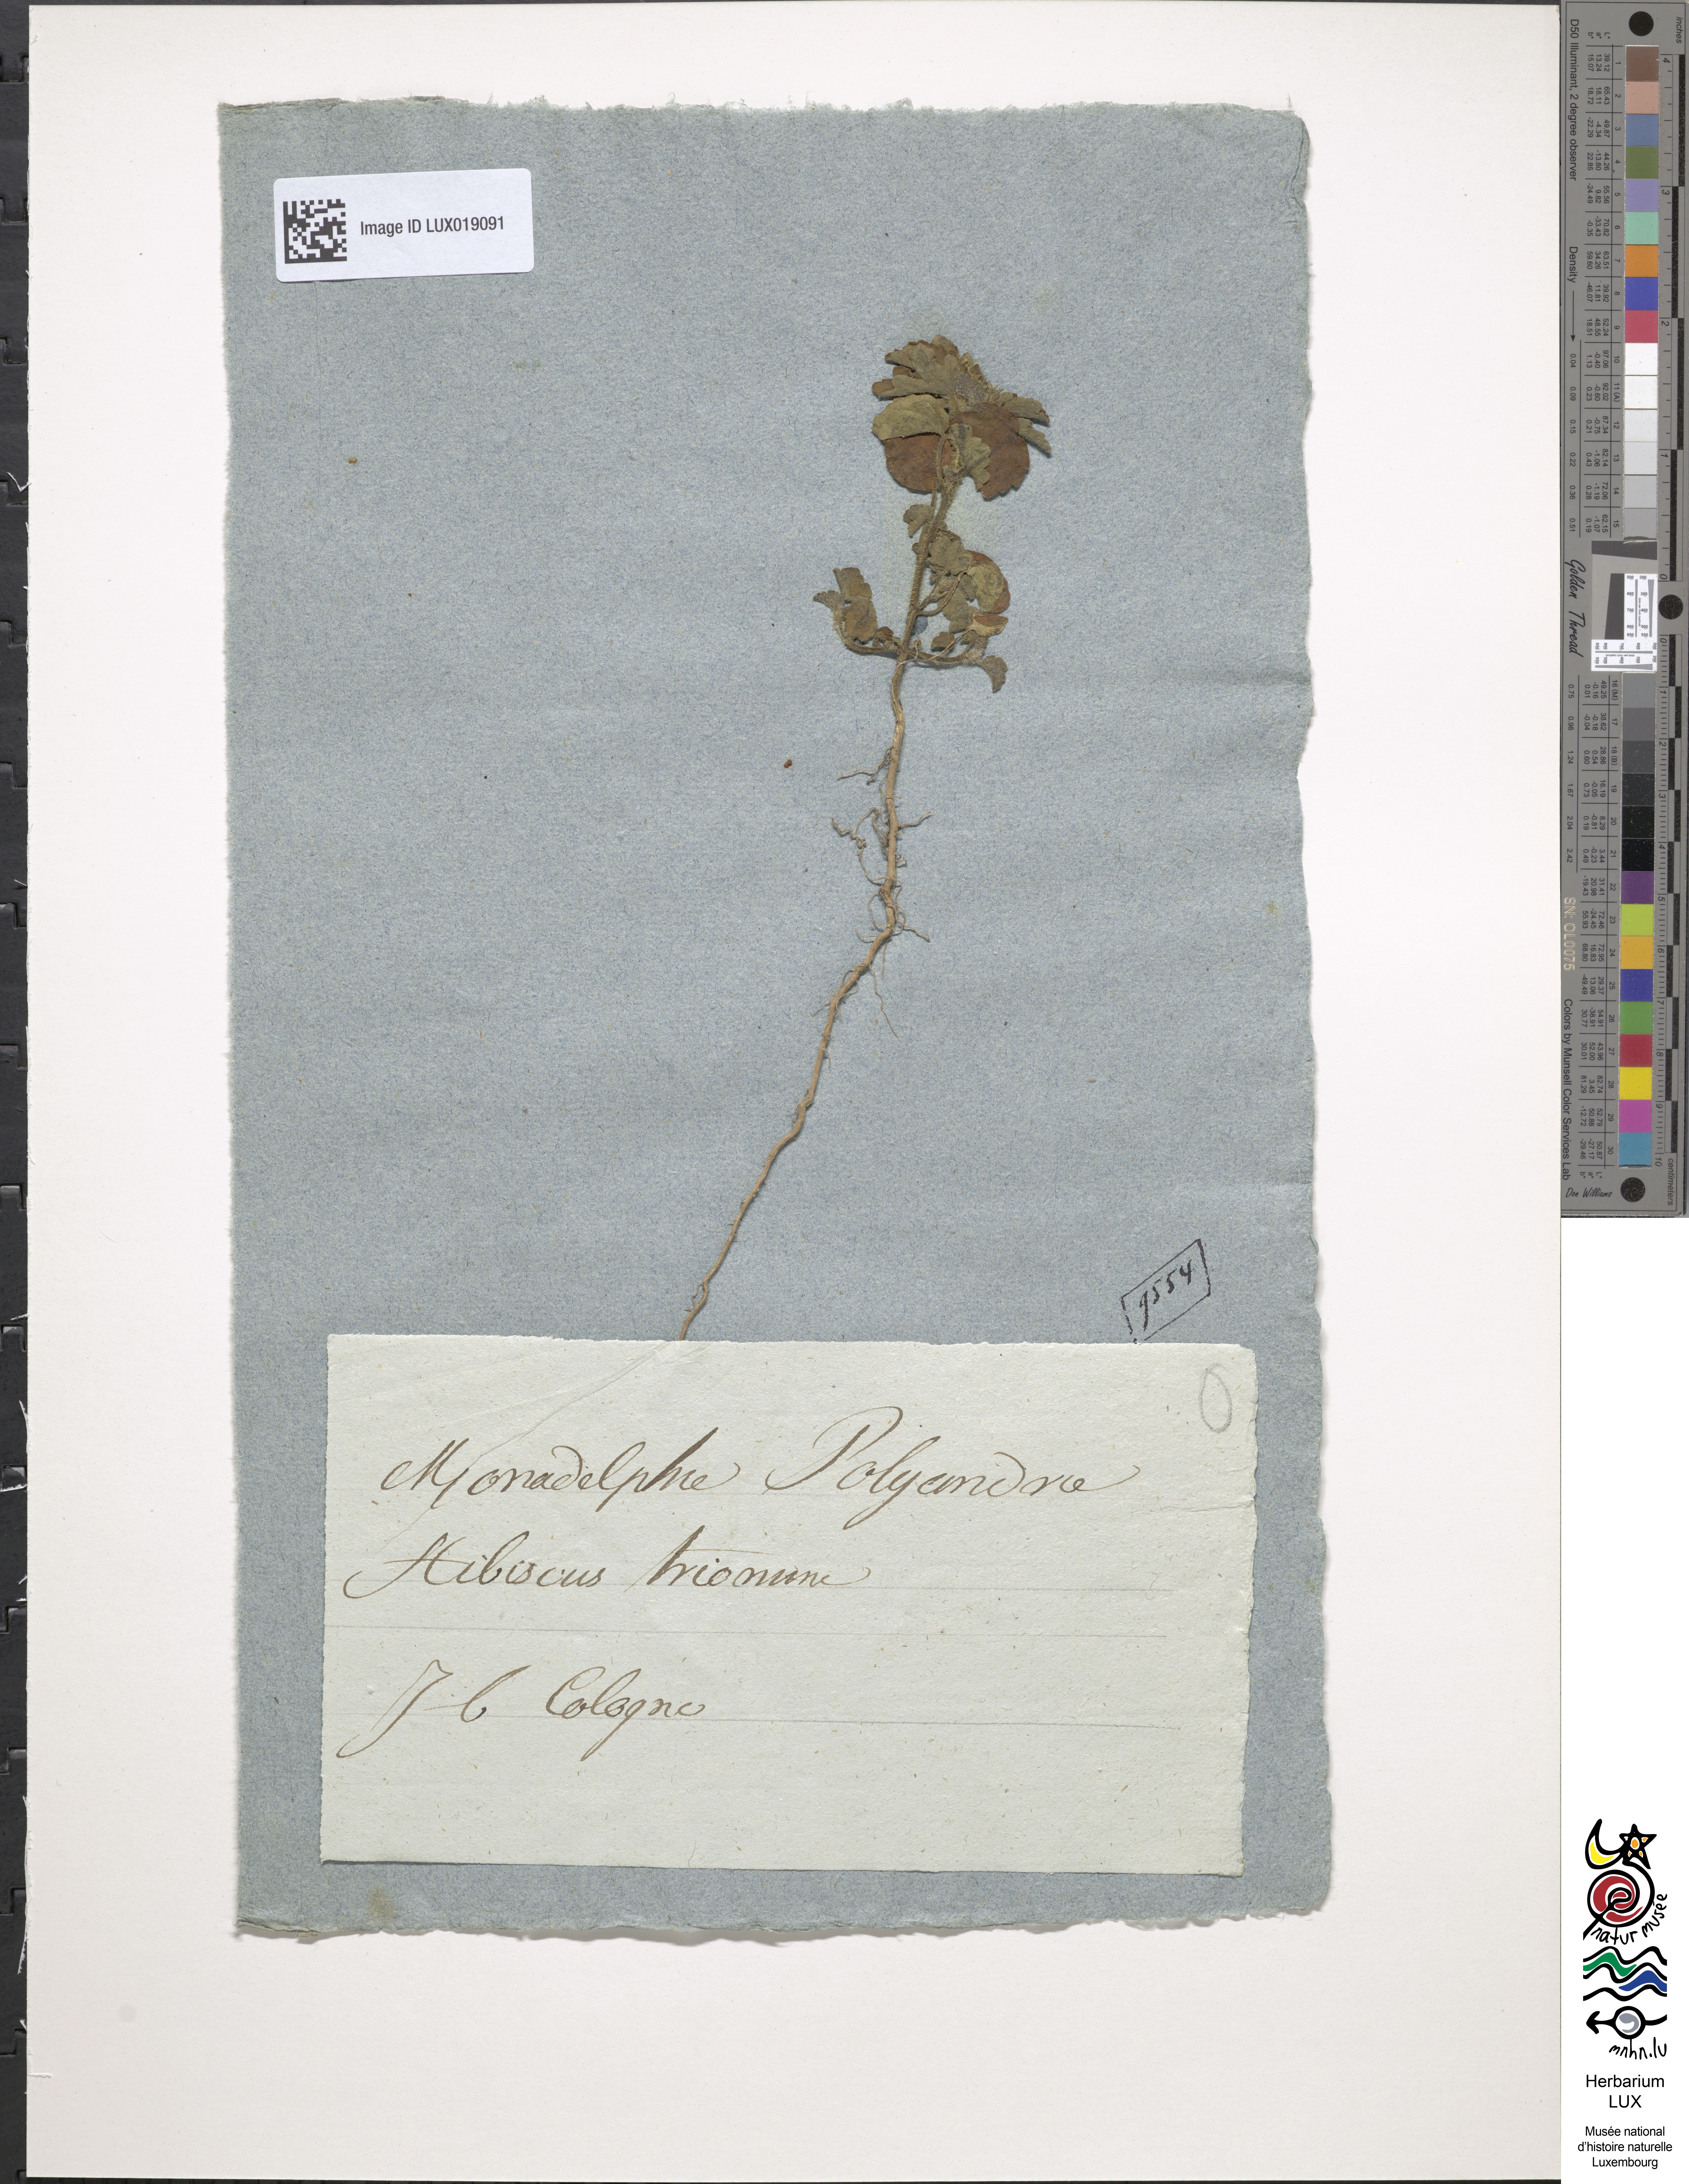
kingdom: Plantae
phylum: Tracheophyta
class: Magnoliopsida
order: Malvales
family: Malvaceae
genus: Hibiscus
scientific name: Hibiscus trionum
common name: Bladder ketmia
